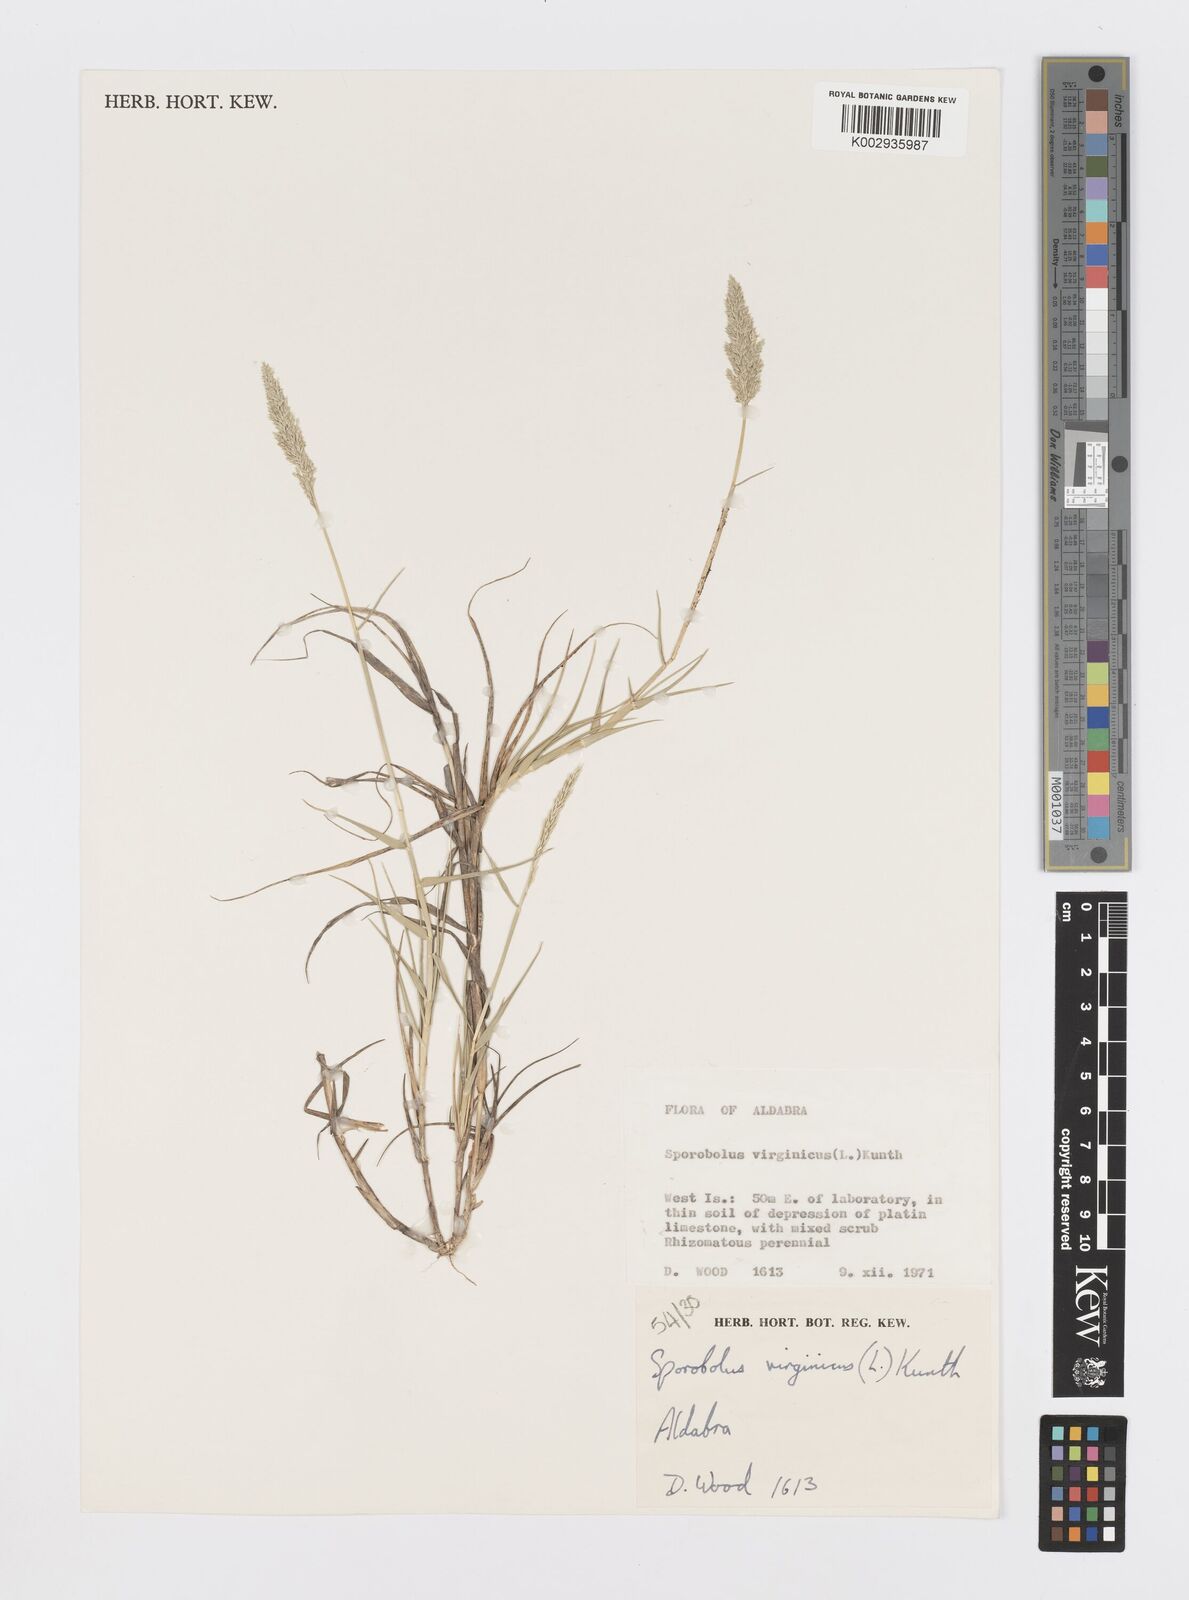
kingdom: Plantae
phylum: Tracheophyta
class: Liliopsida
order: Poales
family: Poaceae
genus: Sporobolus
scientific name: Sporobolus virginicus
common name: Beach dropseed
